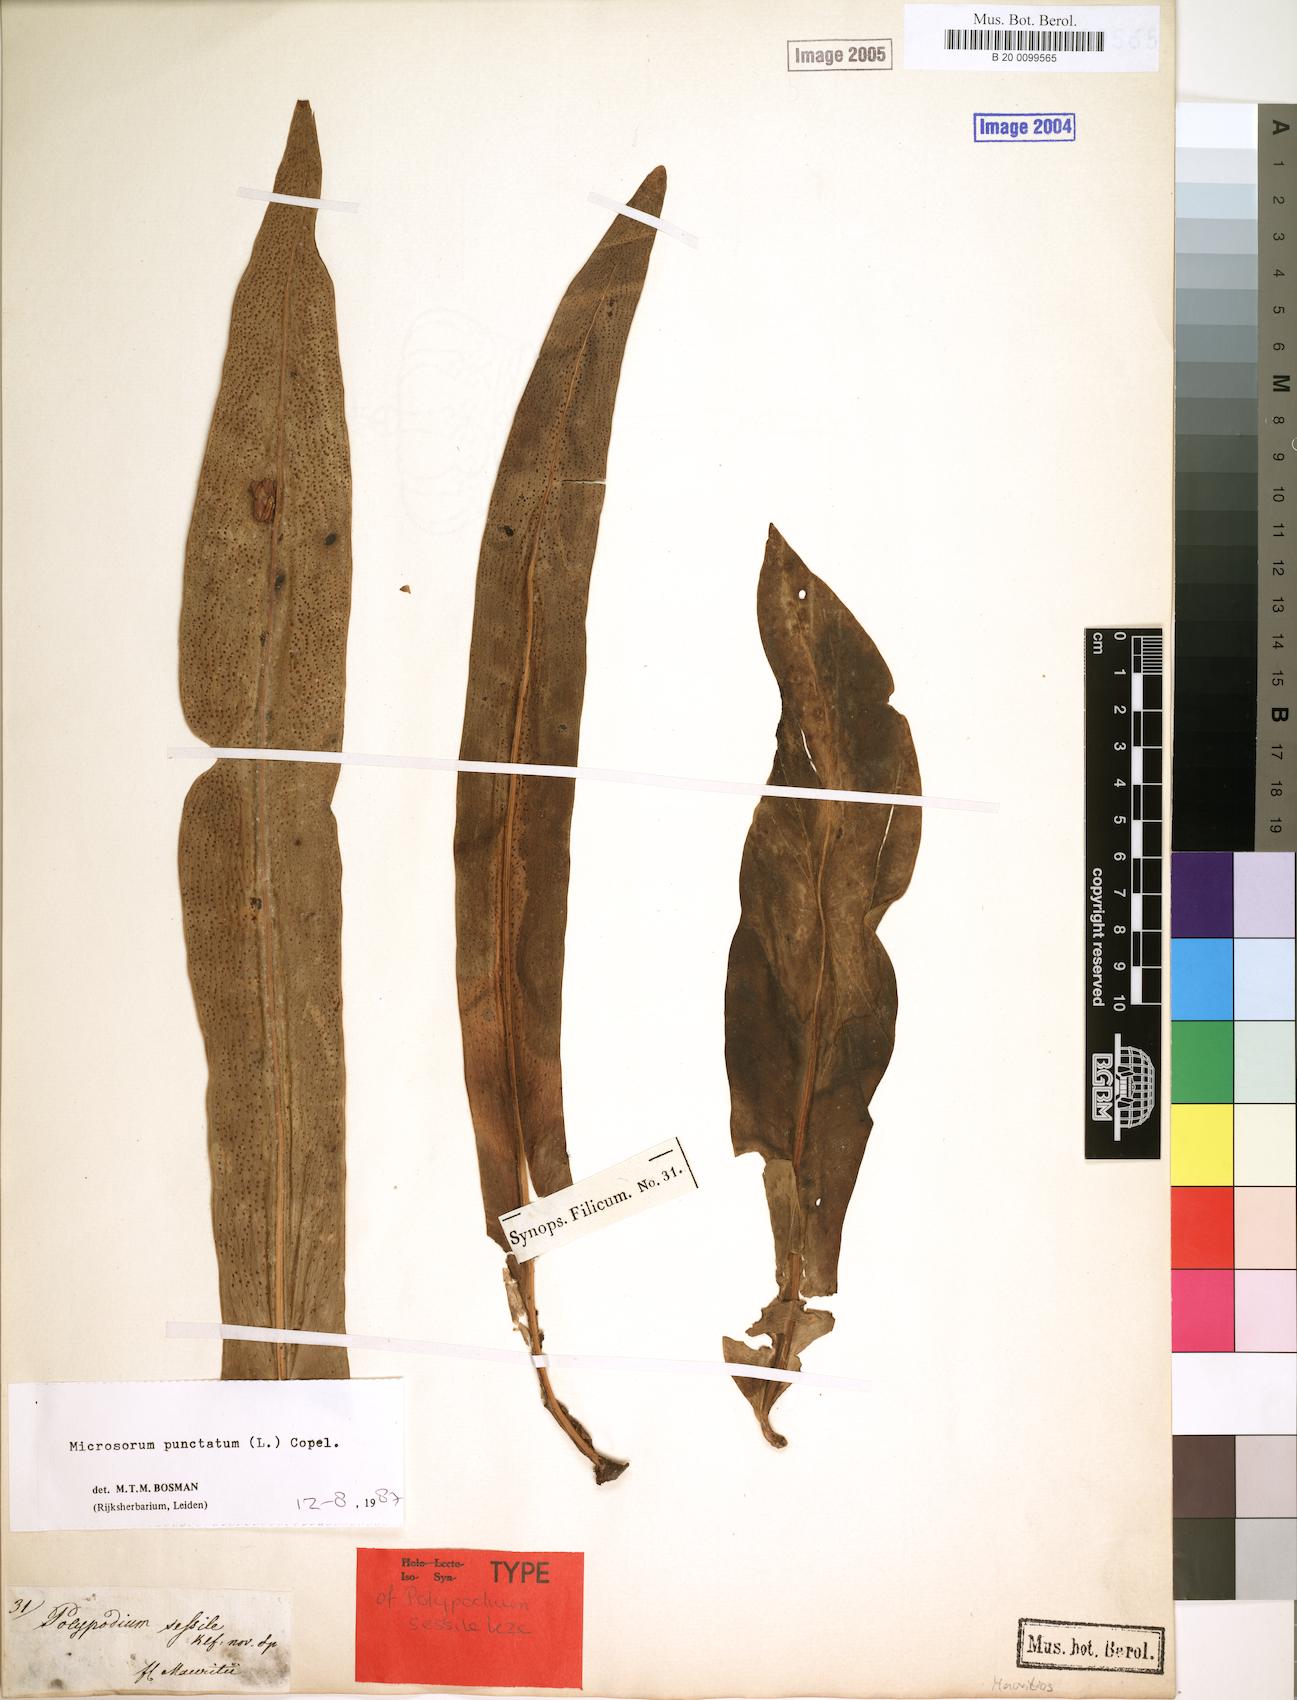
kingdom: Plantae
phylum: Tracheophyta
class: Polypodiopsida
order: Polypodiales
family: Polypodiaceae
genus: Microsorum
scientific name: Microsorum punctatum
